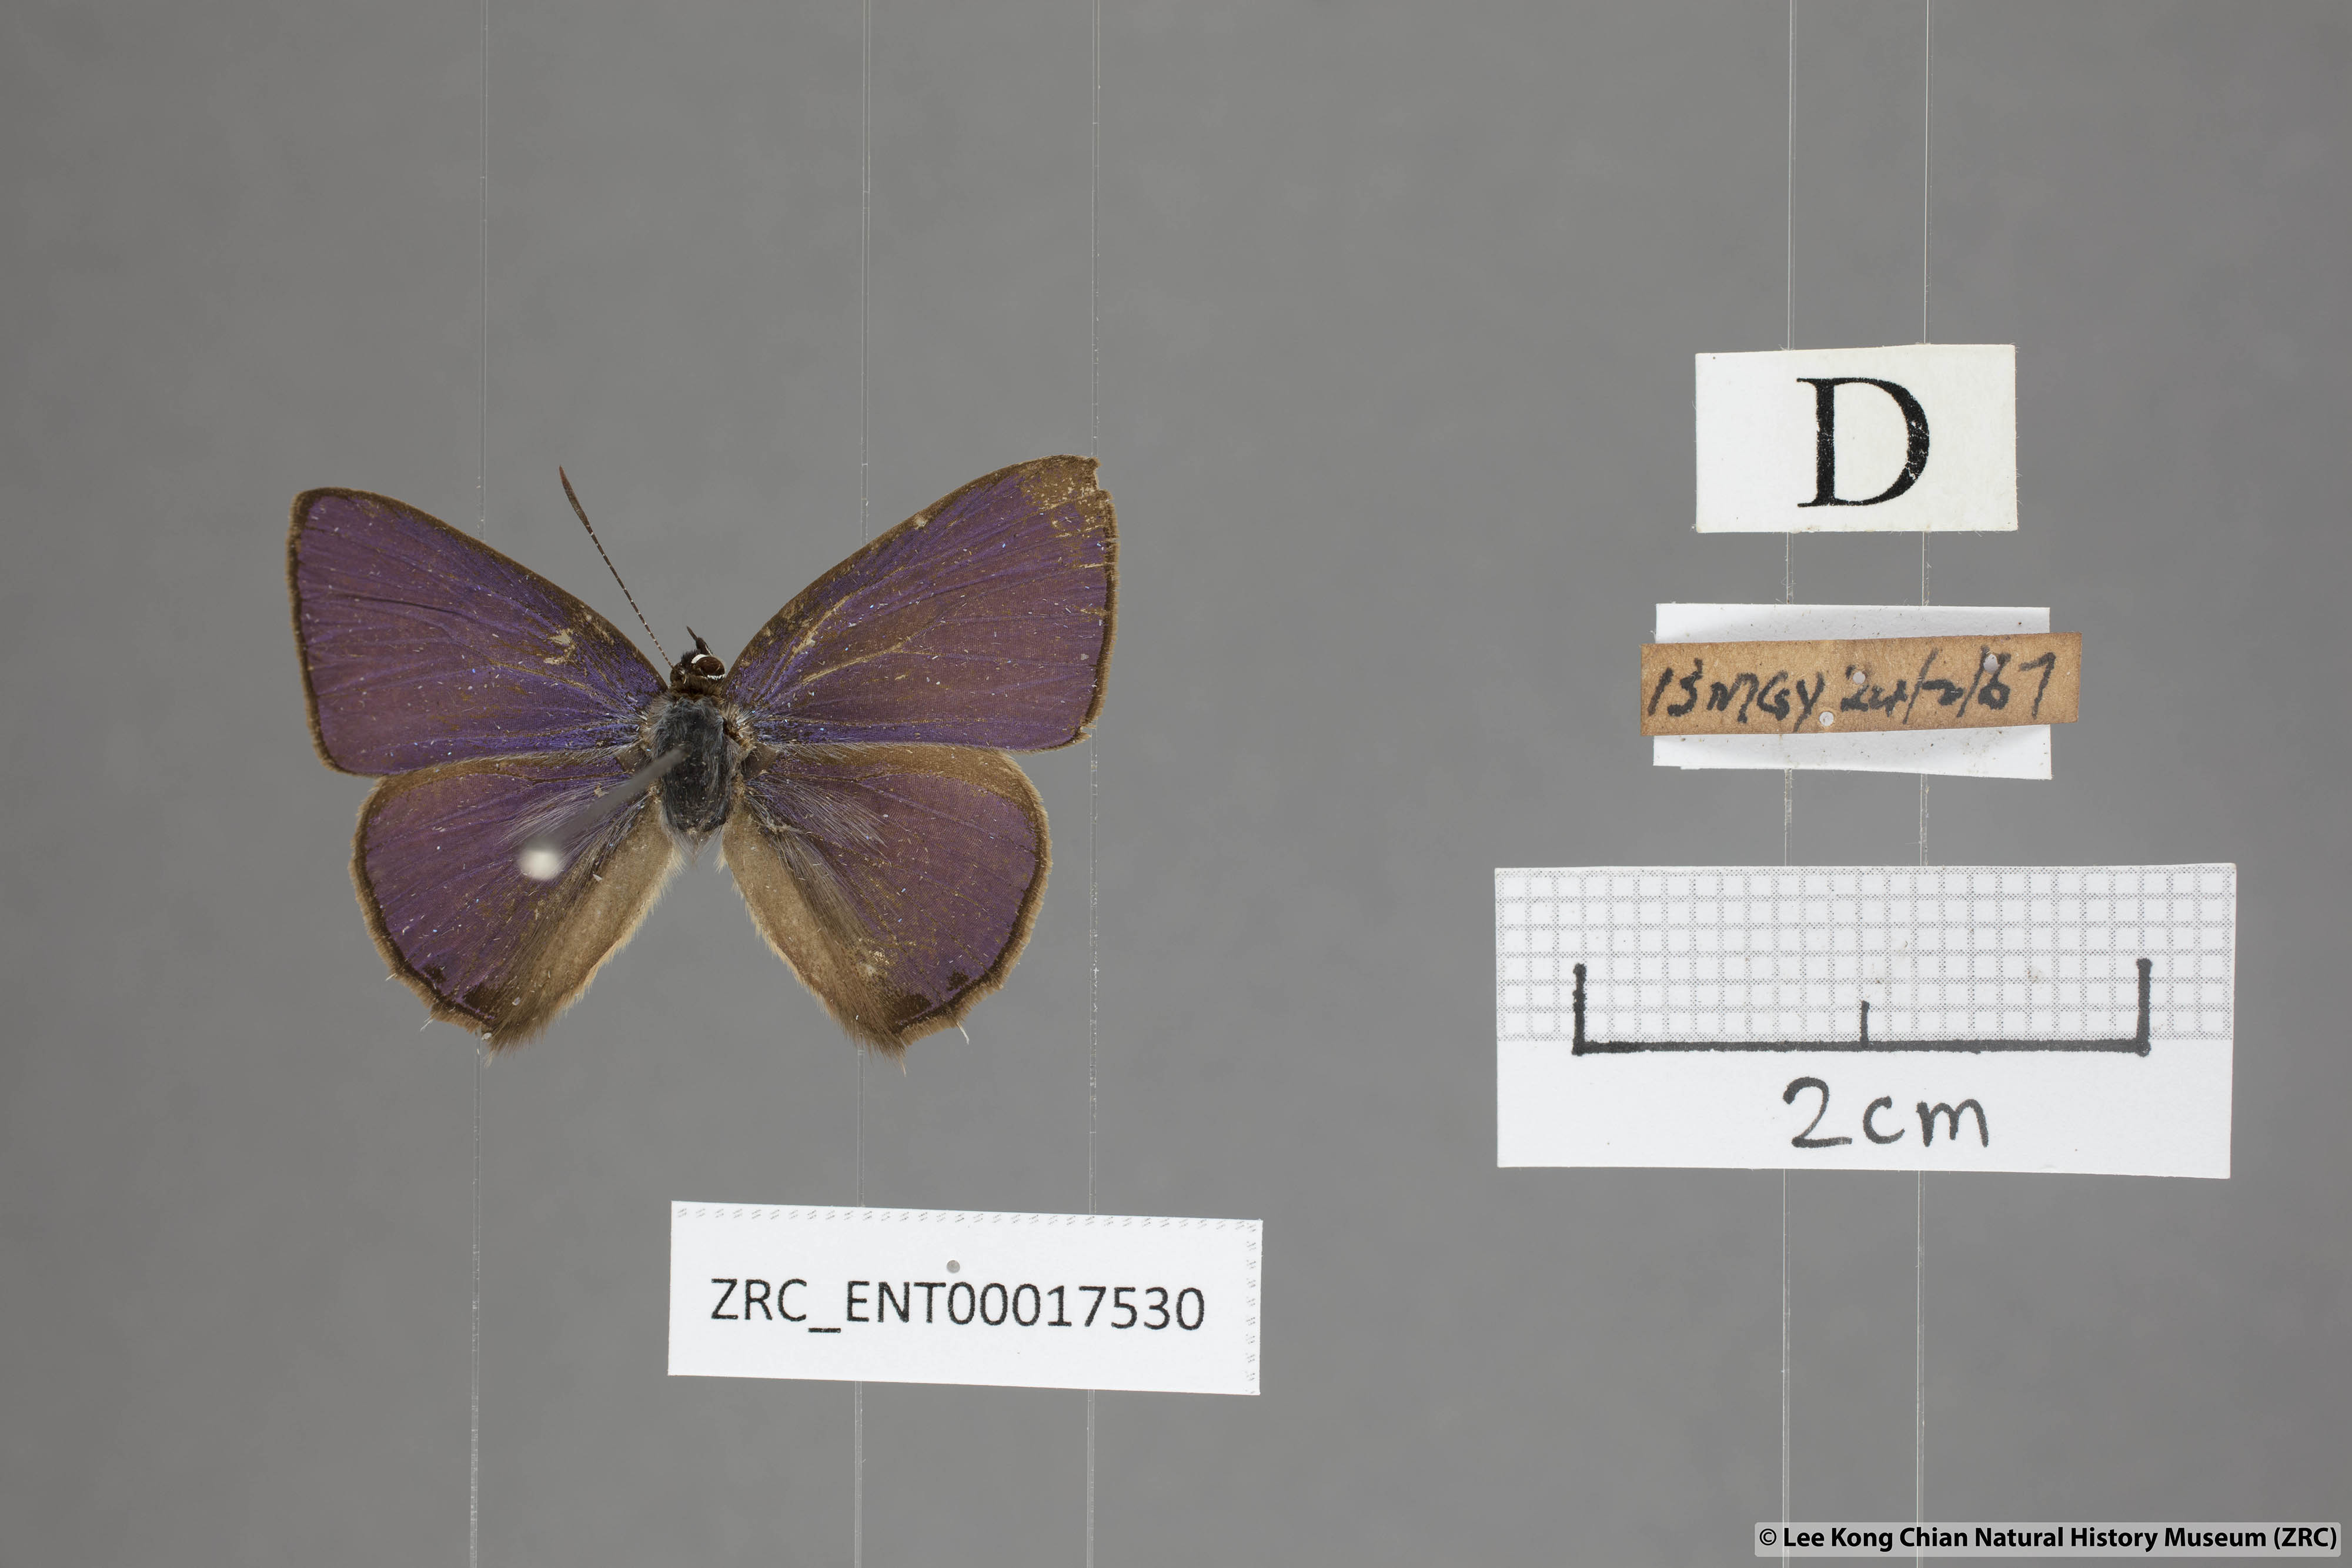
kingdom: Animalia
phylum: Arthropoda
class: Insecta
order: Lepidoptera
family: Lycaenidae
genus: Anthene
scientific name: Anthene emolus
